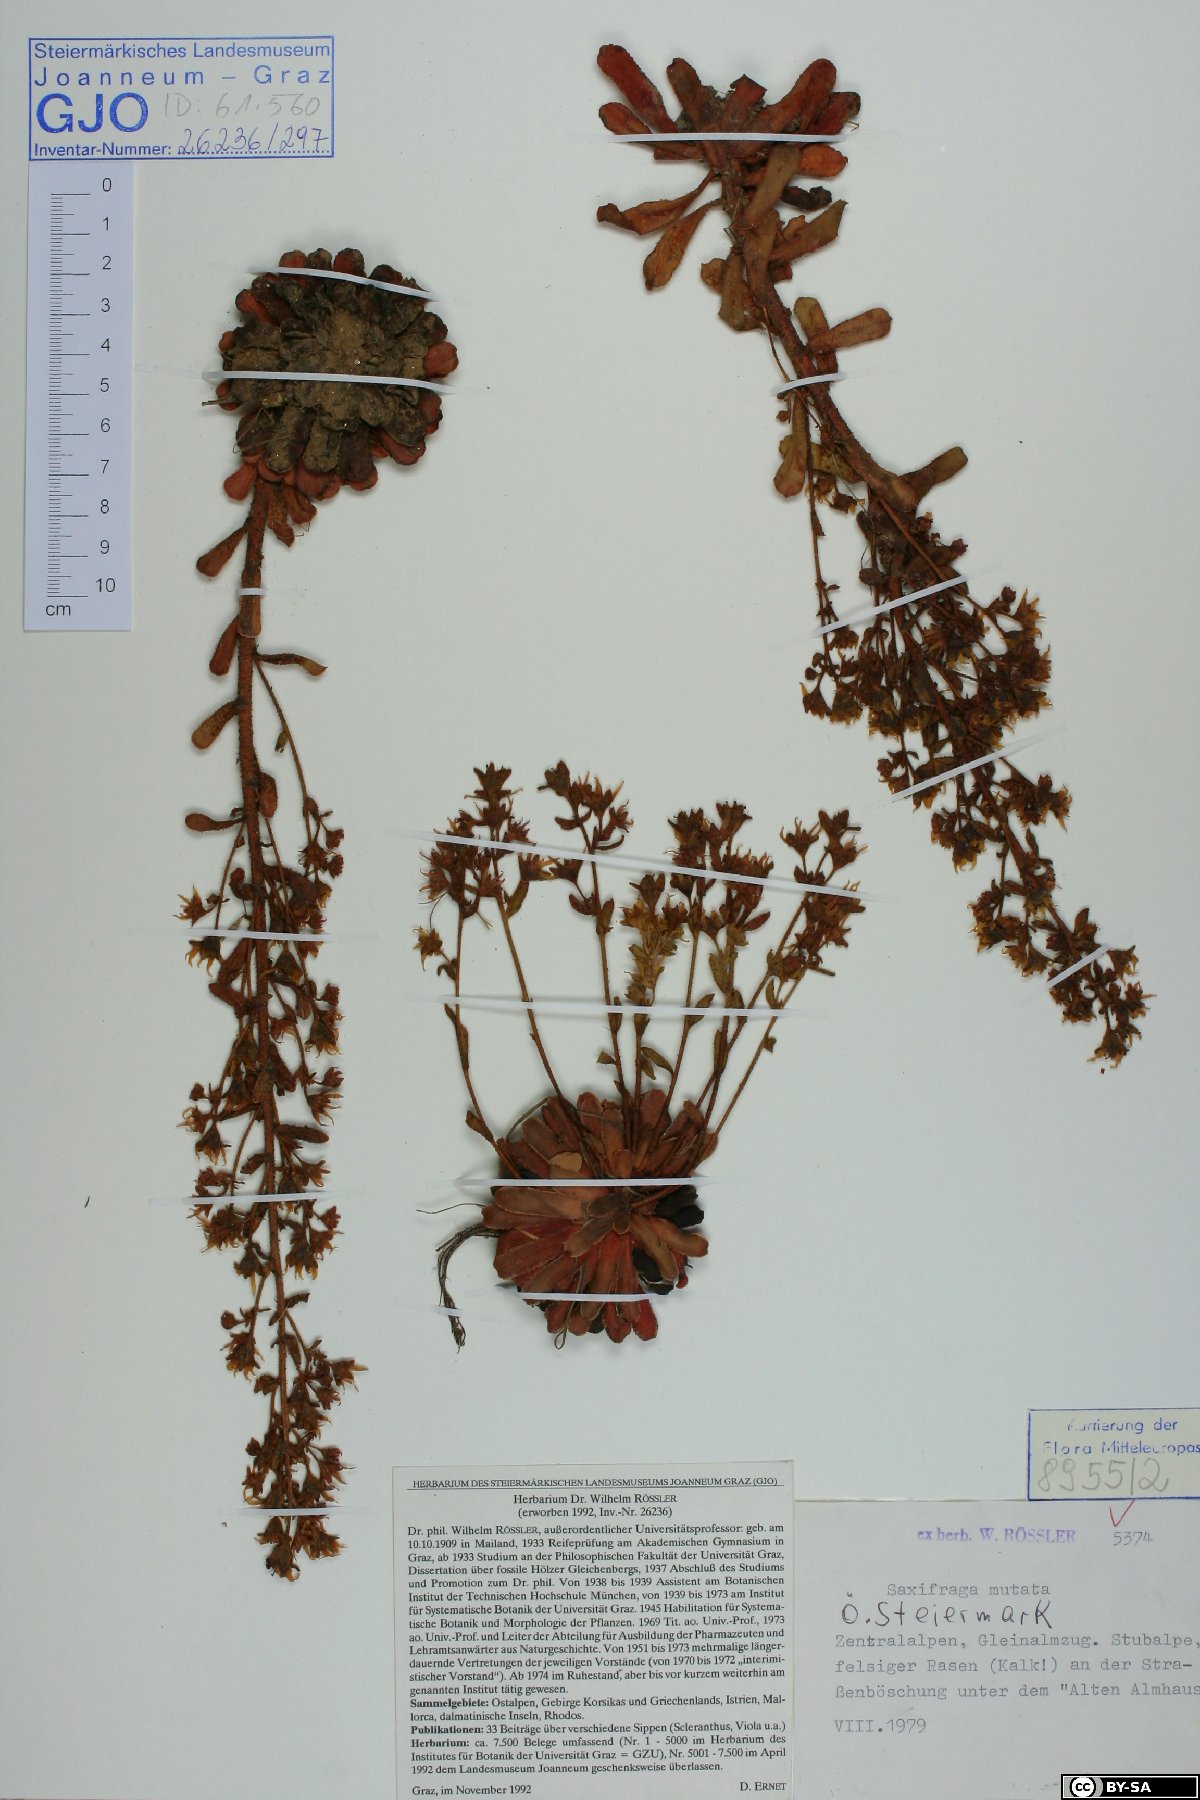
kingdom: Plantae
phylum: Tracheophyta
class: Magnoliopsida
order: Saxifragales
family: Saxifragaceae
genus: Saxifraga
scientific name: Saxifraga mutata
